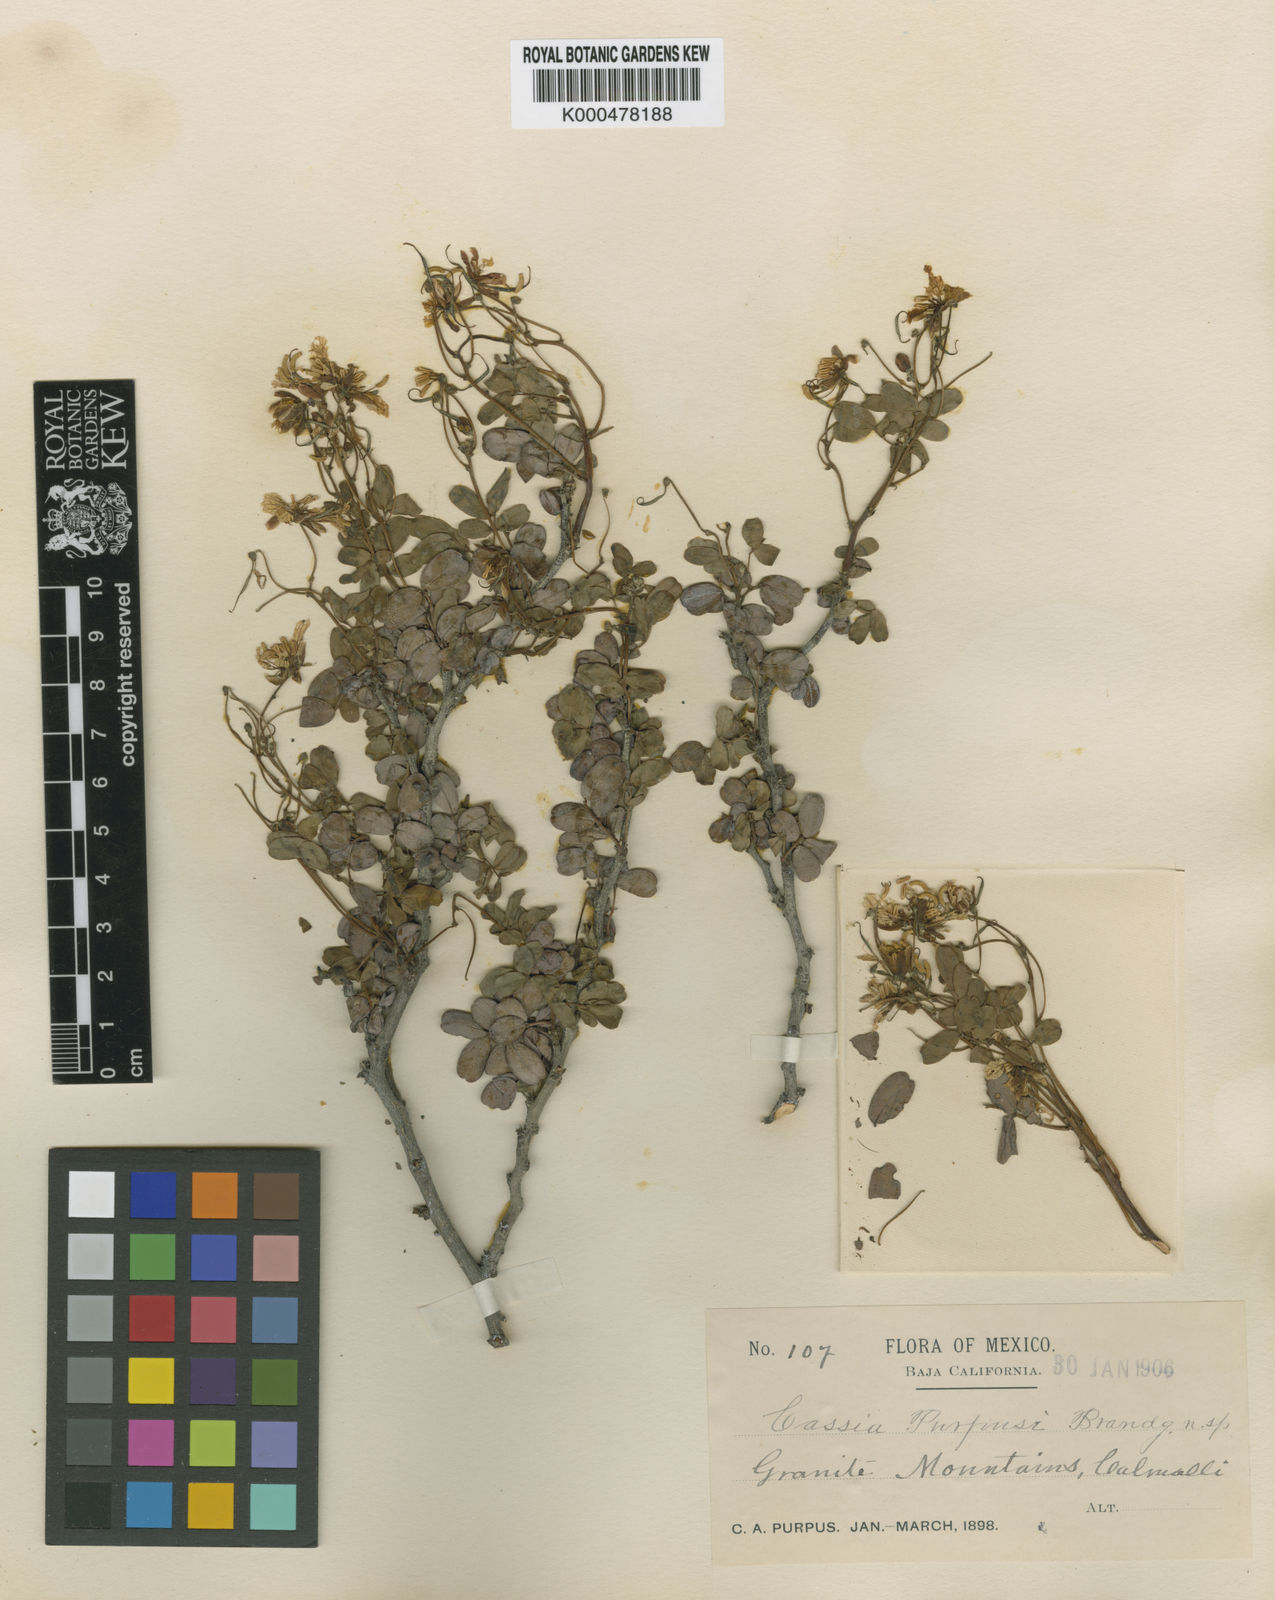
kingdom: Plantae
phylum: Tracheophyta
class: Magnoliopsida
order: Fabales
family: Fabaceae
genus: Senna
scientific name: Senna purpusii
